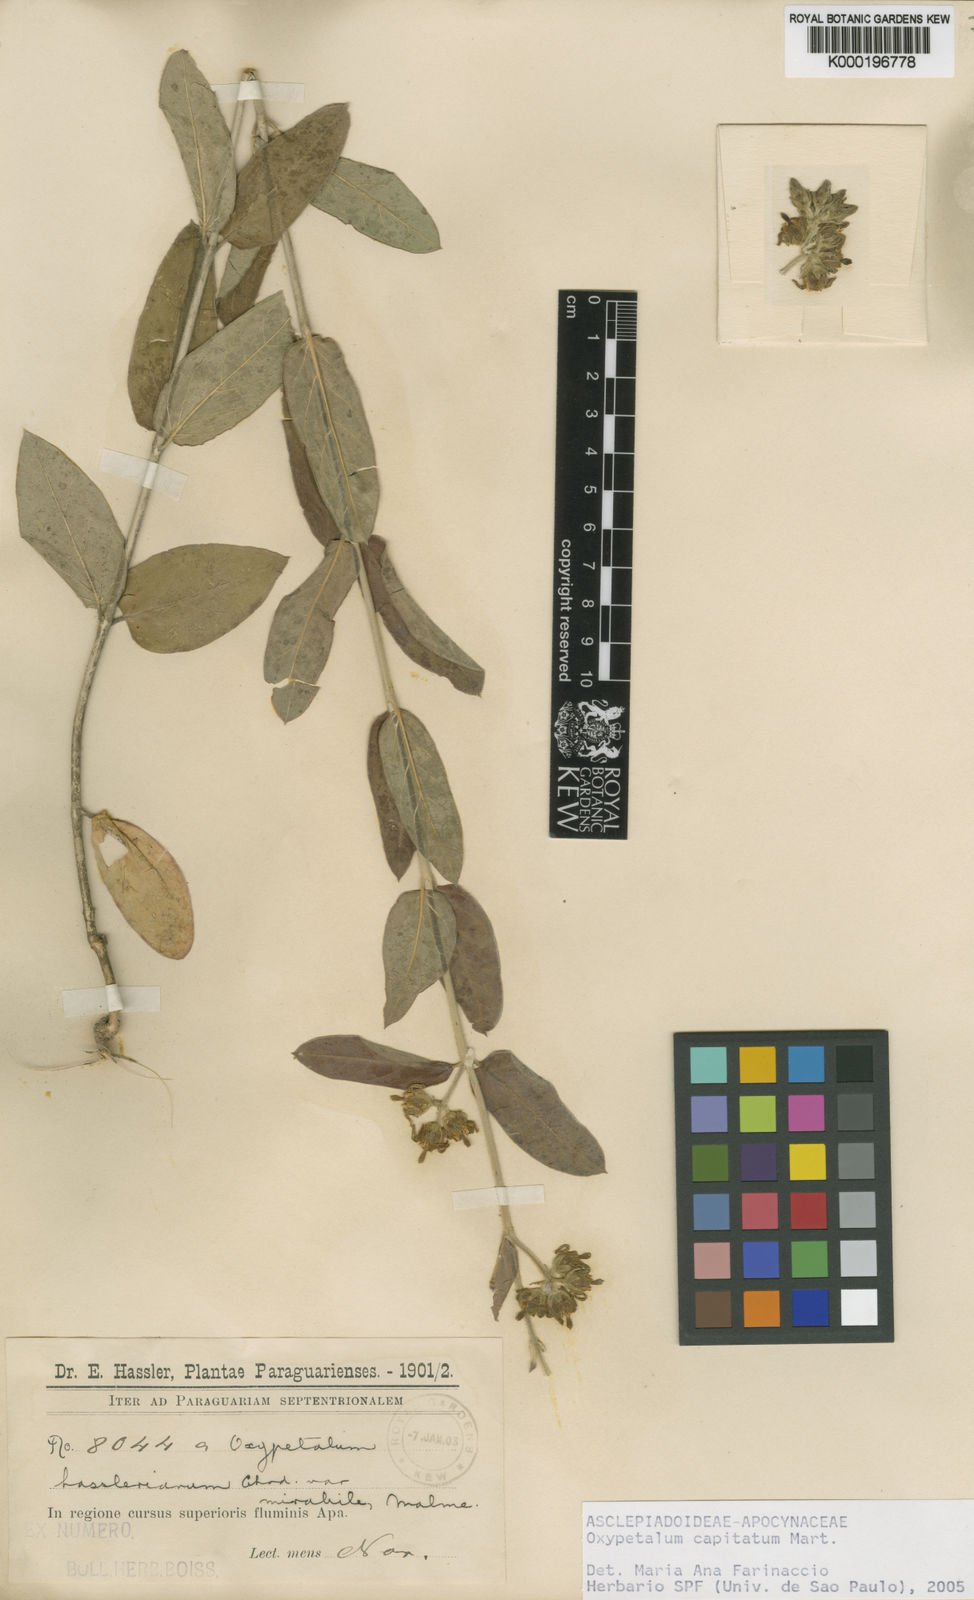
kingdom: Plantae
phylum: Tracheophyta
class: Magnoliopsida
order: Gentianales
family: Apocynaceae
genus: Oxypetalum
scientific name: Oxypetalum capitatum
